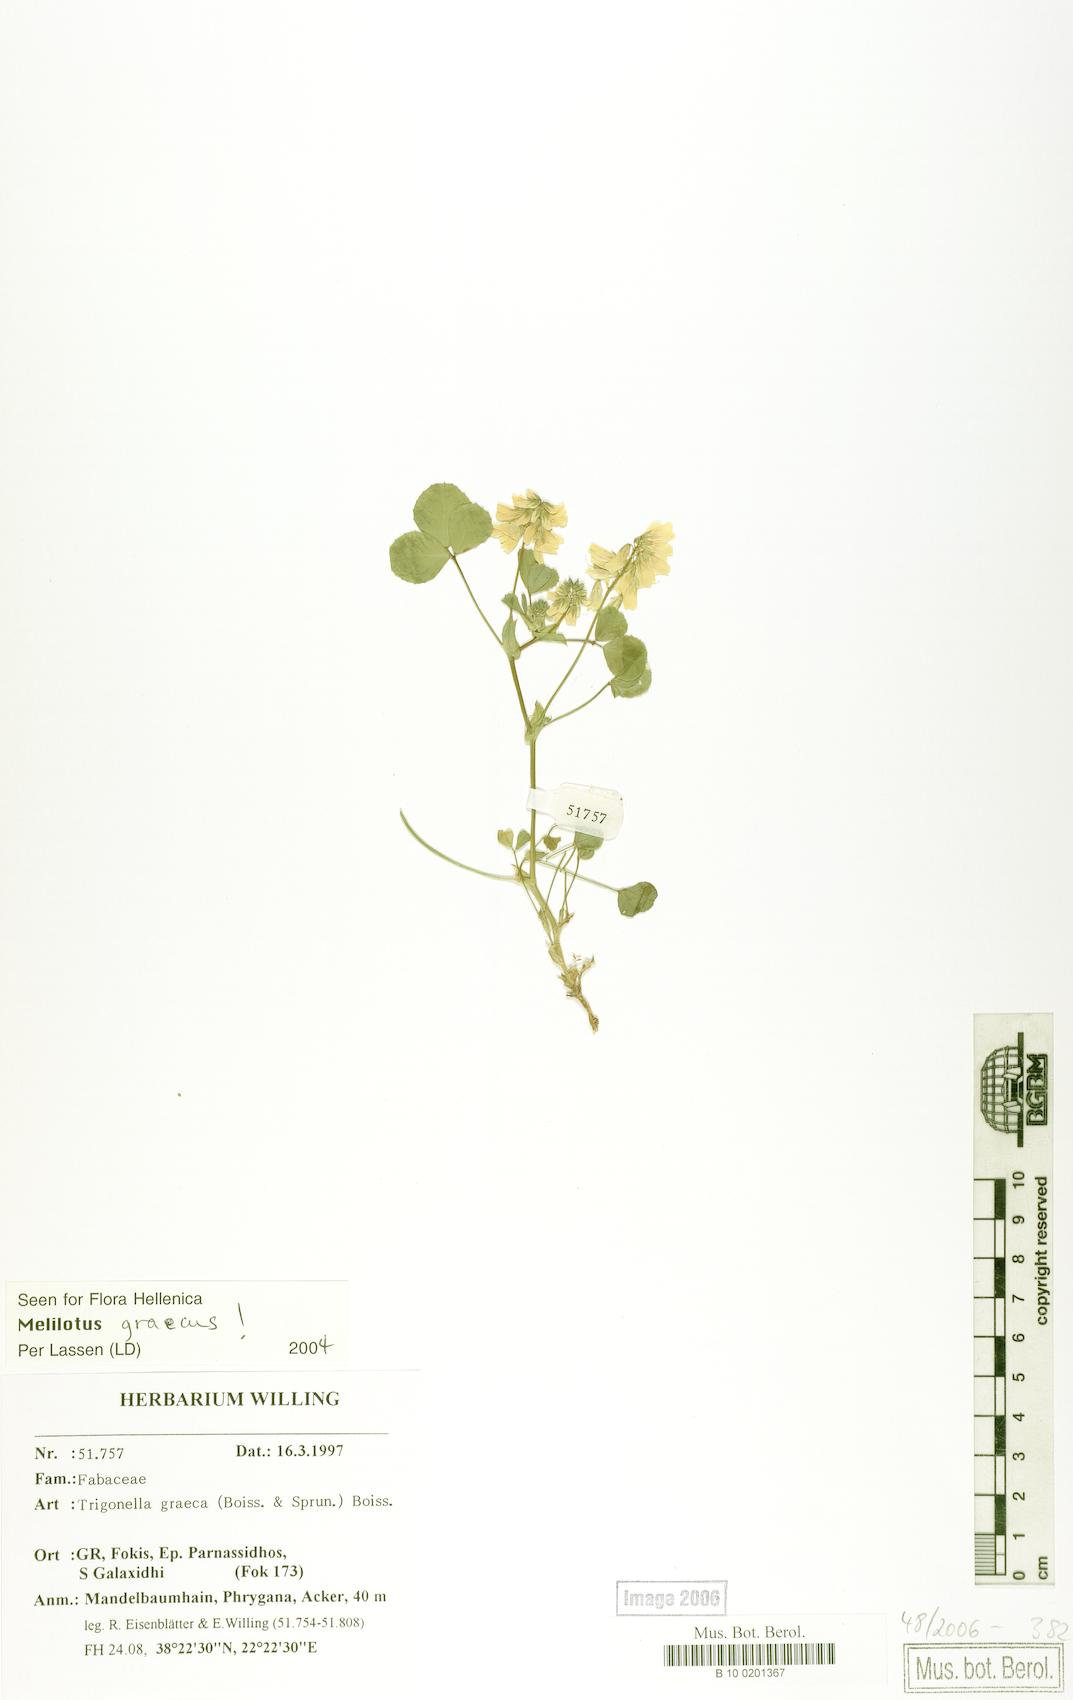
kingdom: Plantae
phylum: Tracheophyta
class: Magnoliopsida
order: Fabales
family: Fabaceae
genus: Trigonella
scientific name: Trigonella graeca
